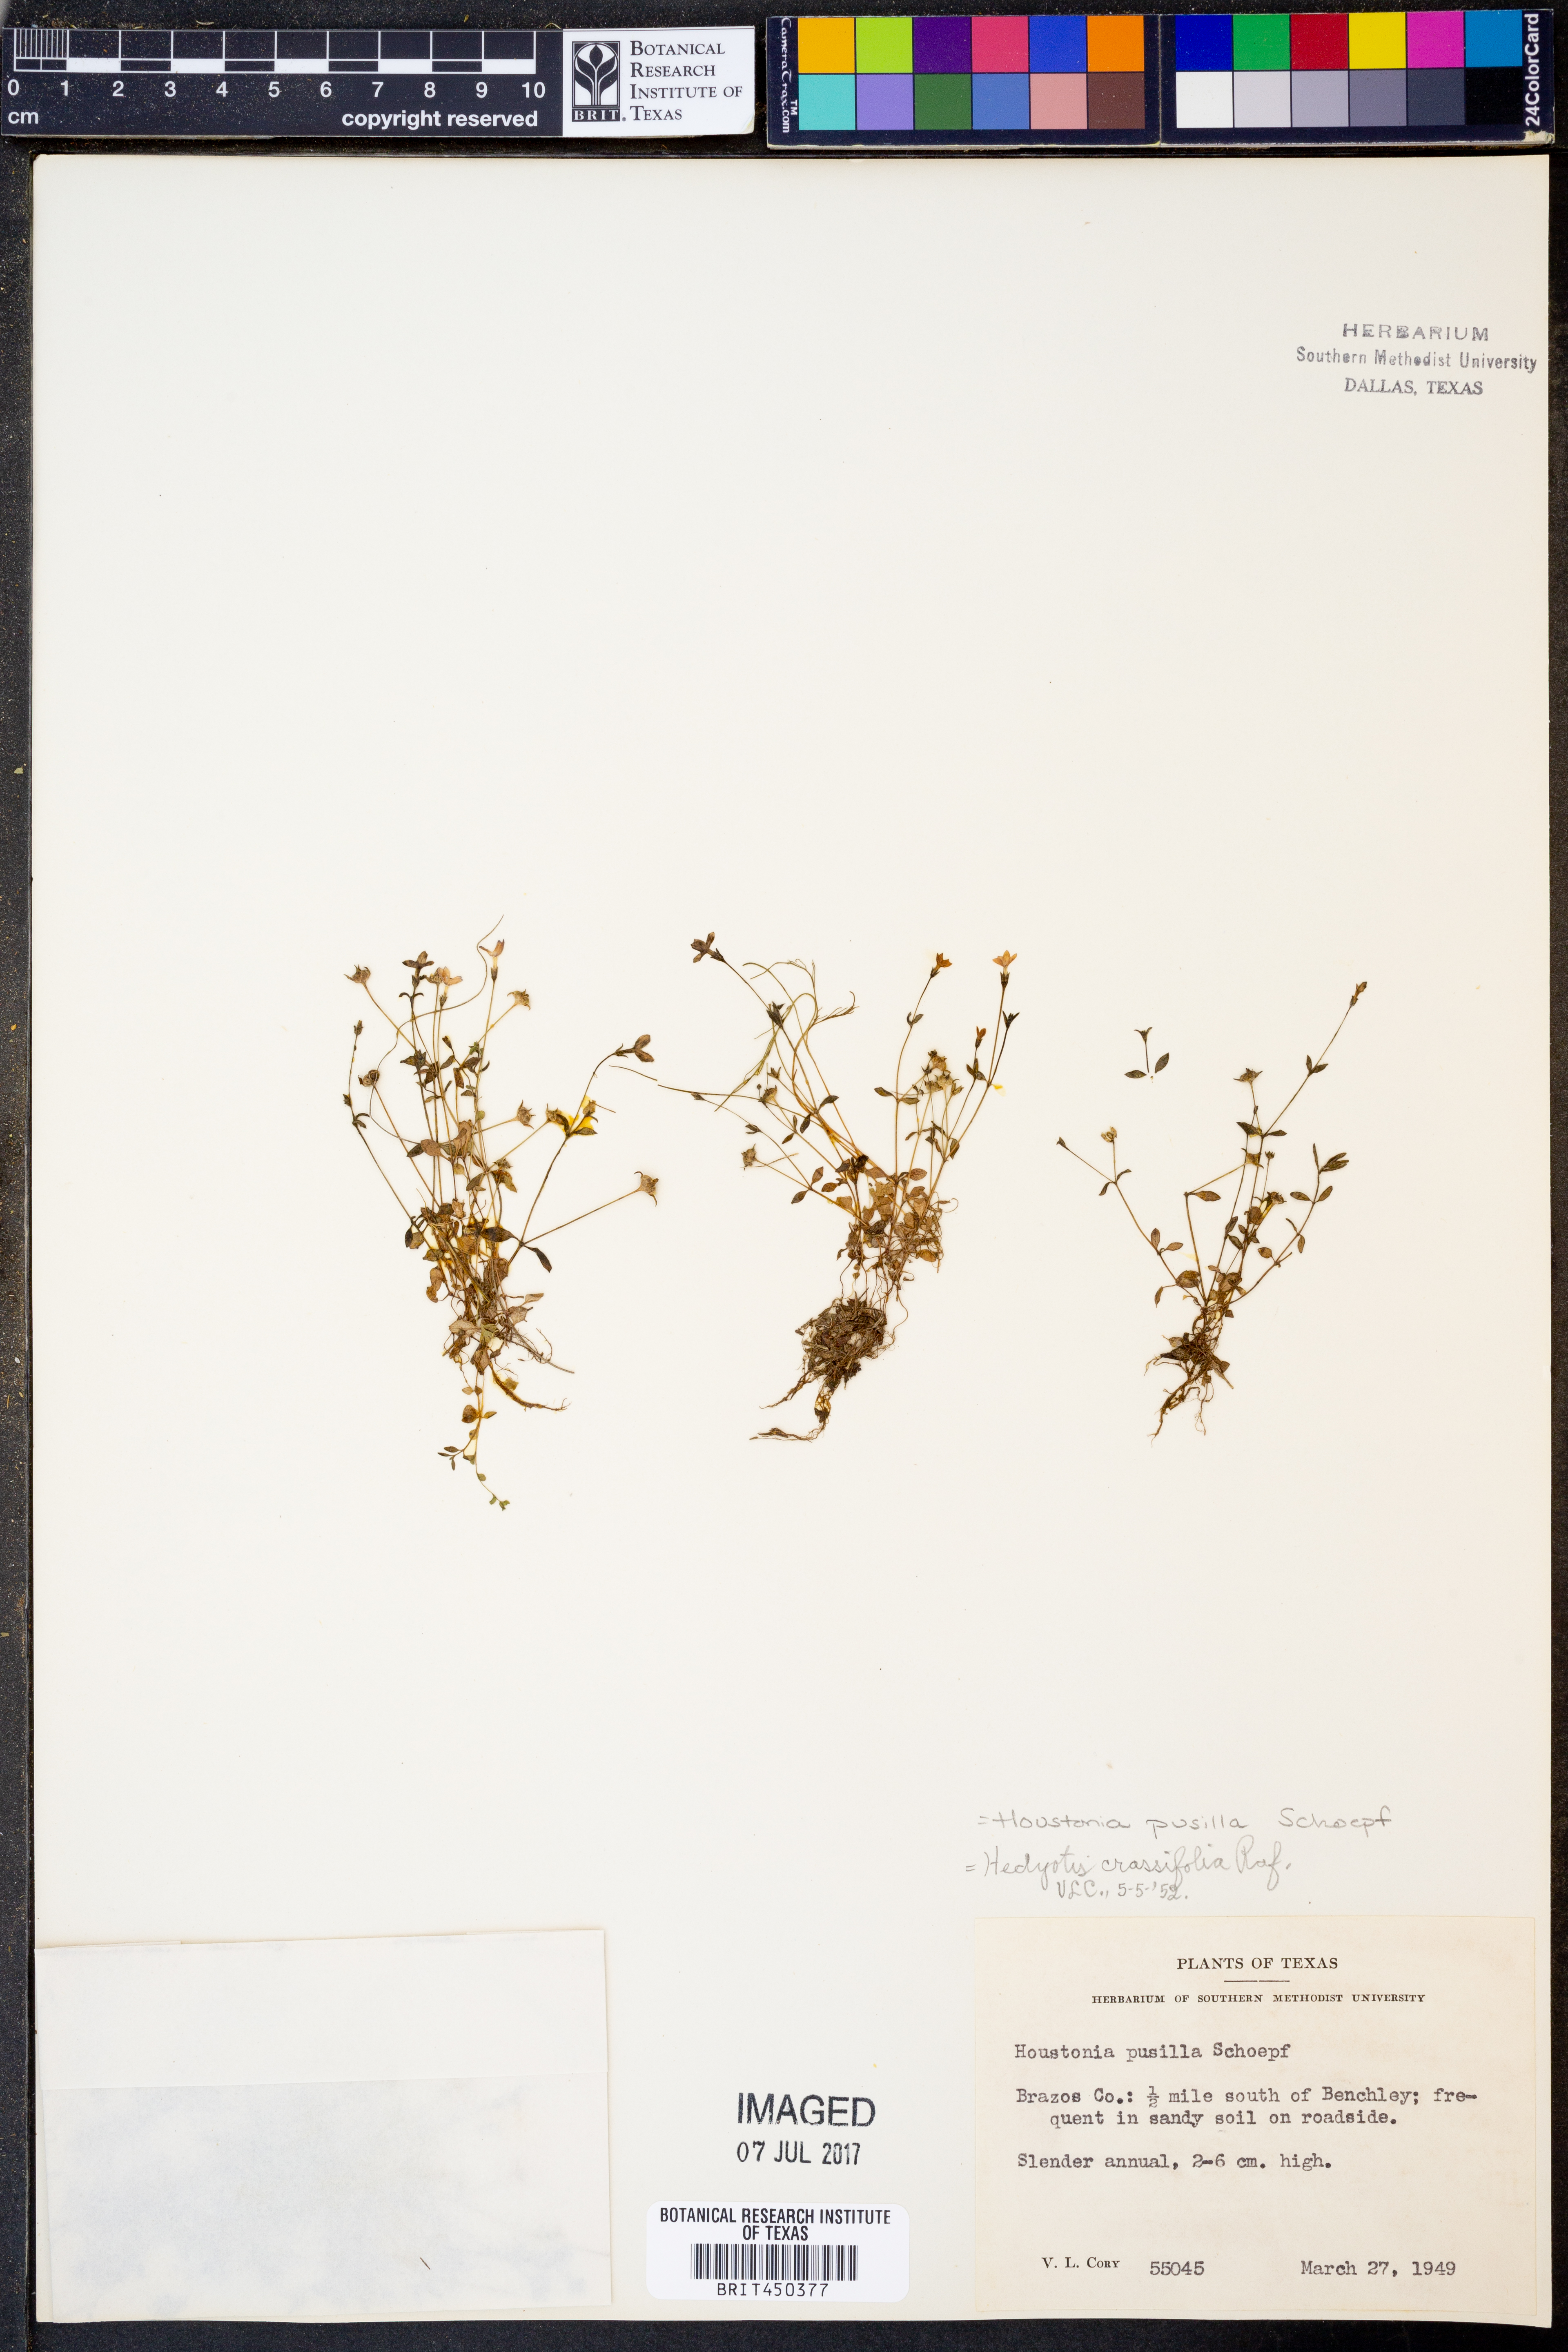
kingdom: Plantae
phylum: Tracheophyta
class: Magnoliopsida
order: Gentianales
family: Rubiaceae
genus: Houstonia
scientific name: Houstonia pusilla
